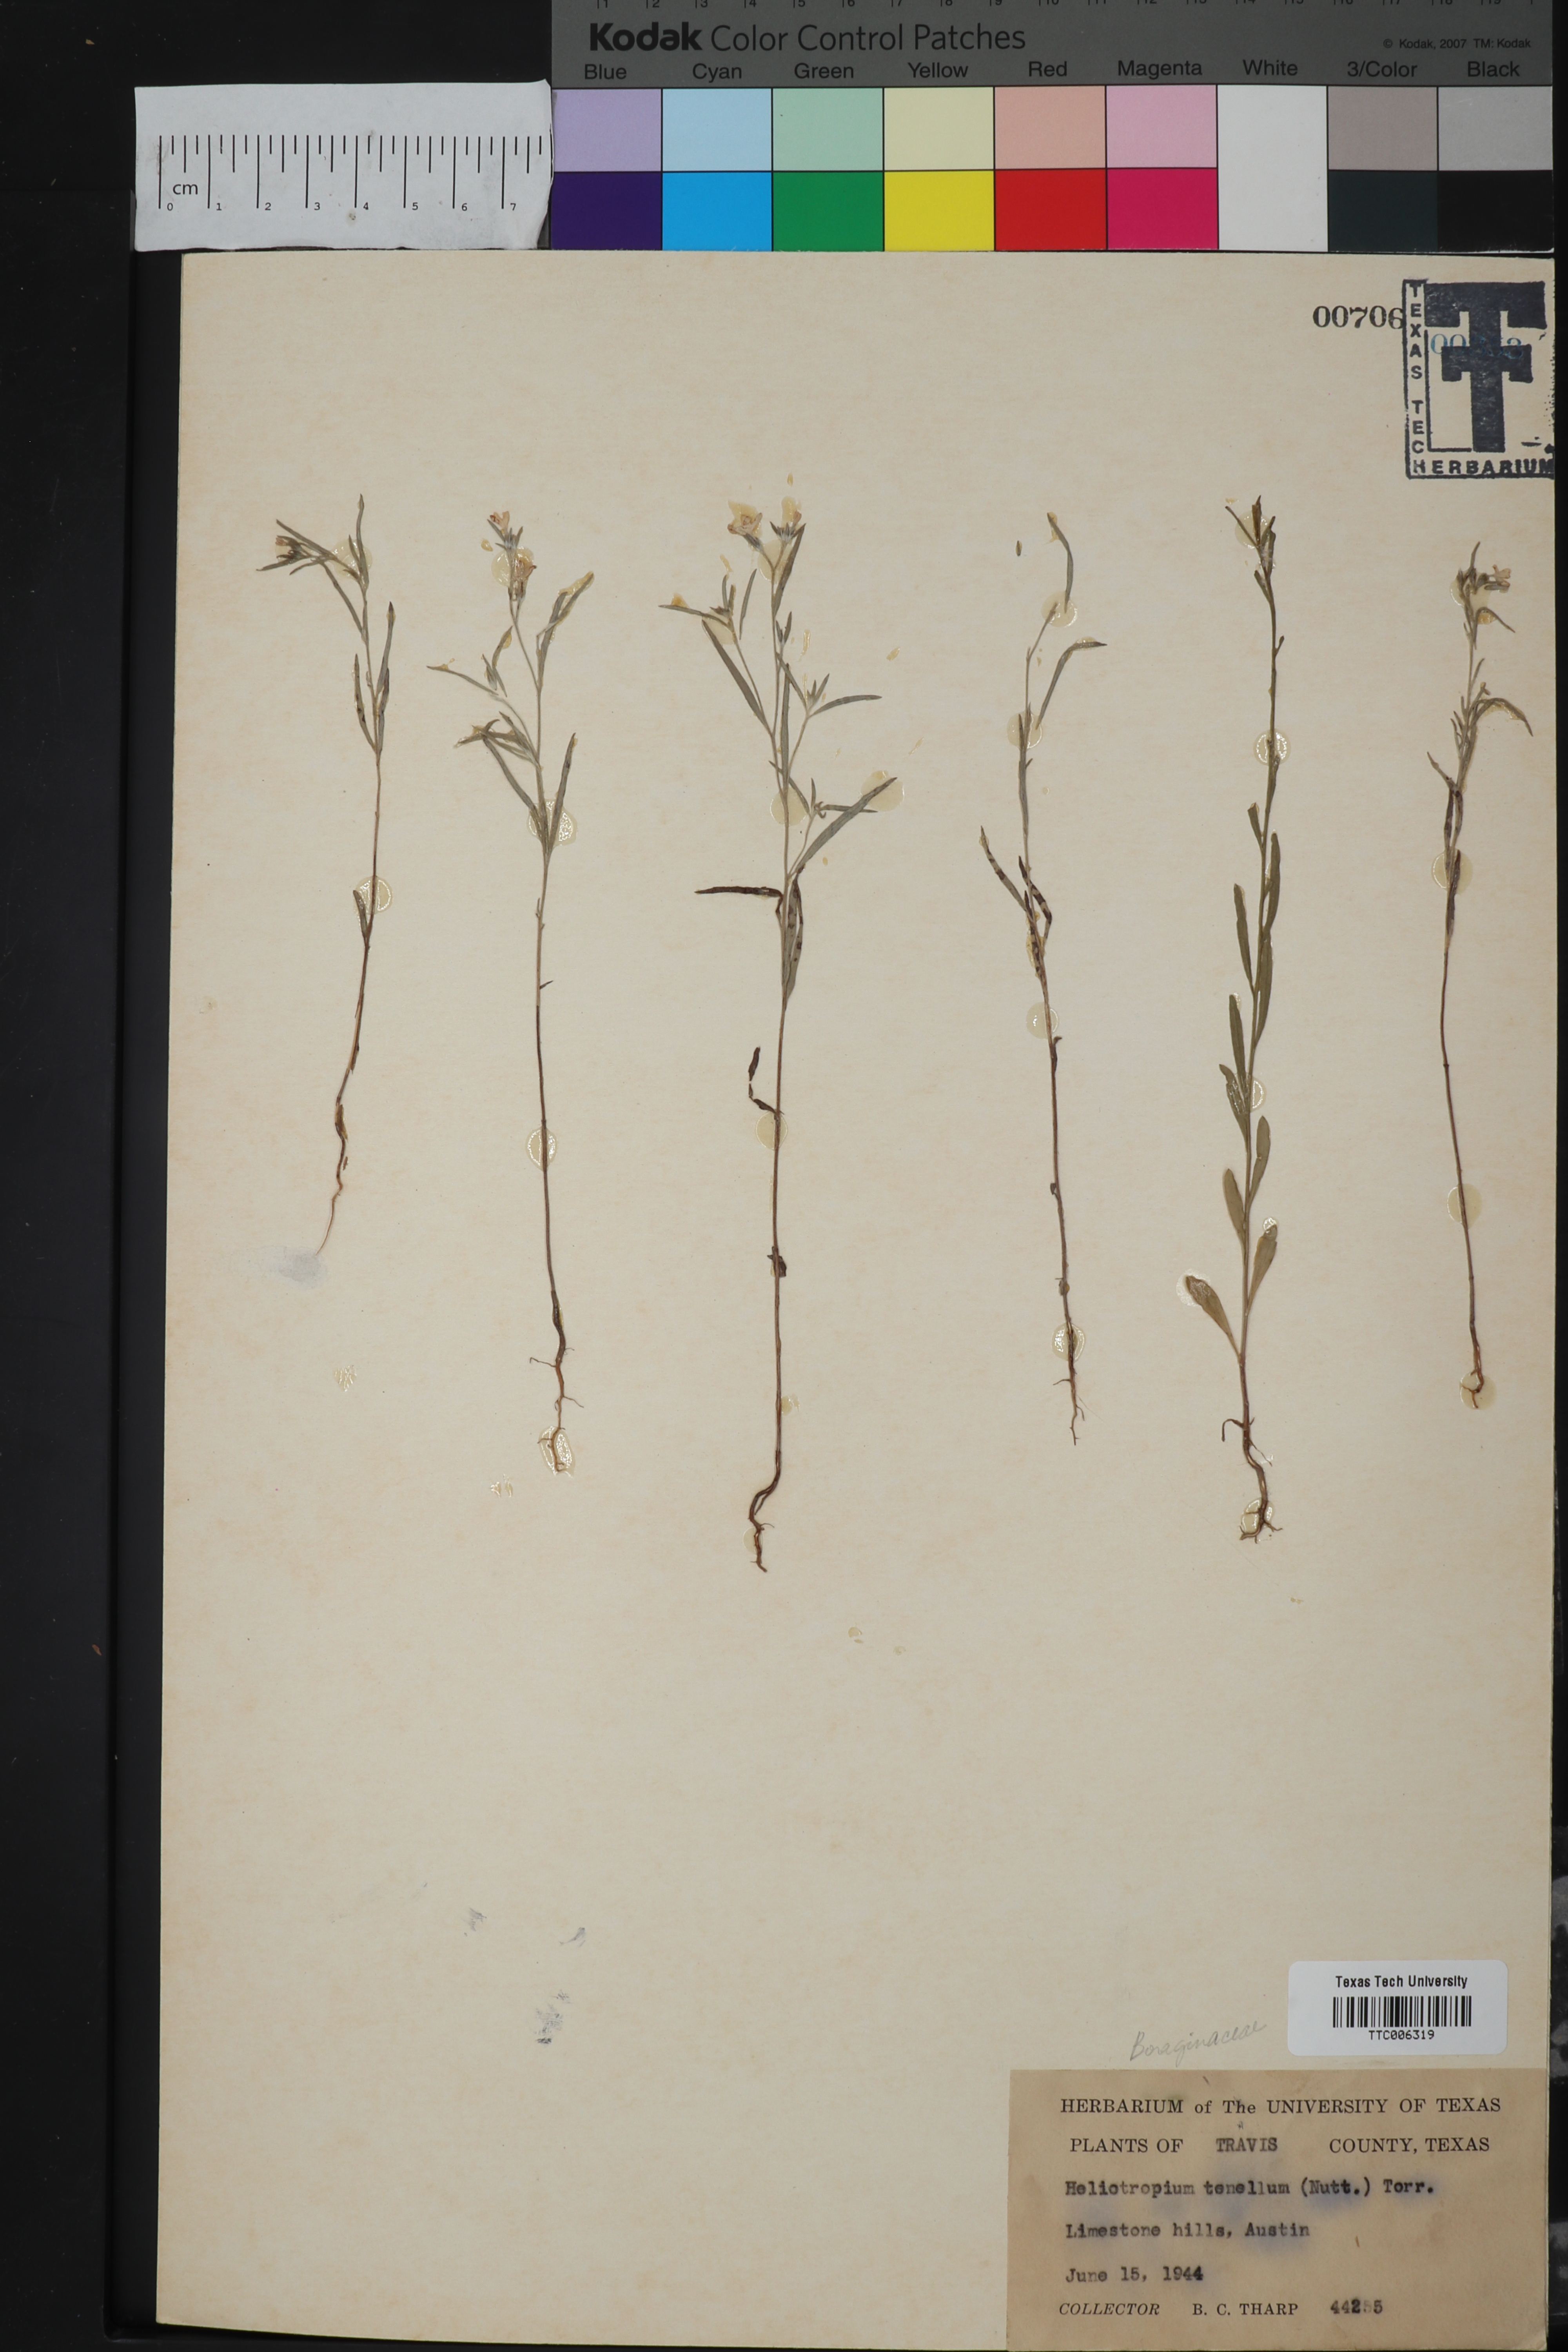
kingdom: Plantae
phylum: Tracheophyta
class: Magnoliopsida
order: Boraginales
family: Heliotropiaceae
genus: Euploca
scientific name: Euploca tenella
